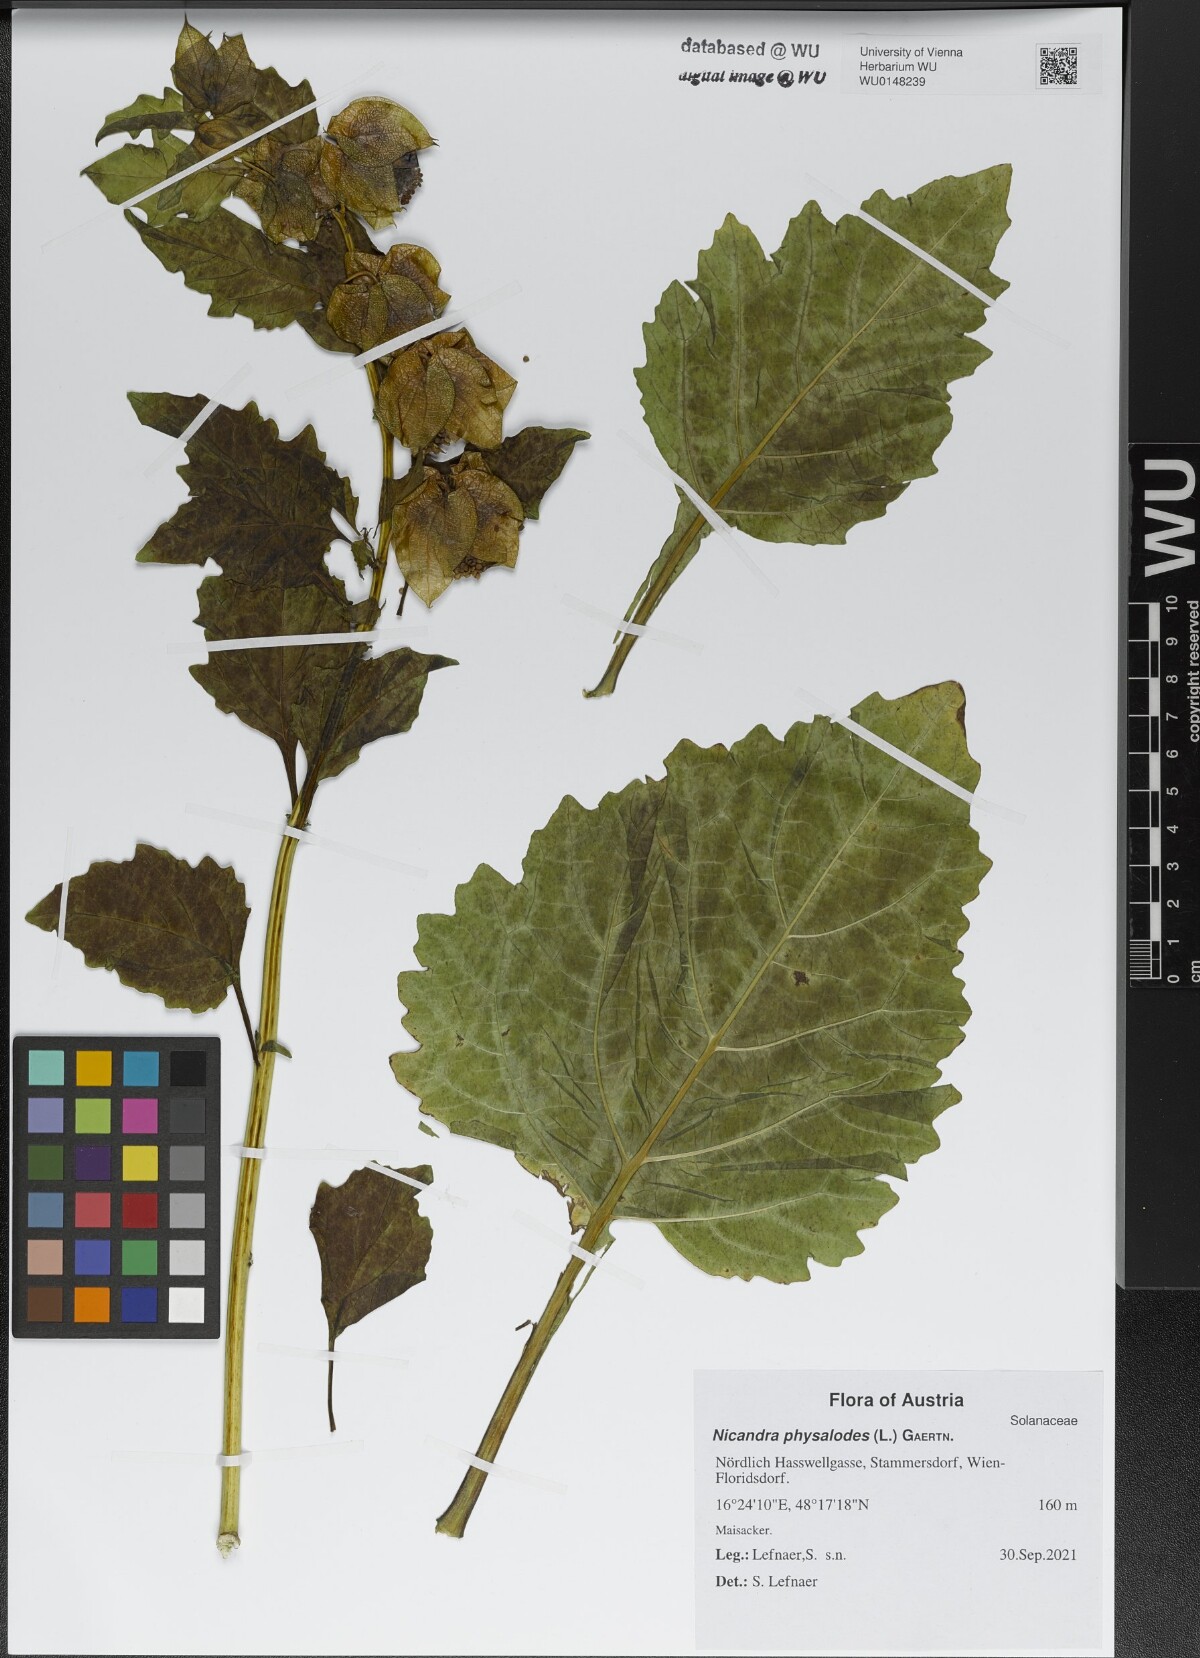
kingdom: Plantae
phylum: Tracheophyta
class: Magnoliopsida
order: Solanales
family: Solanaceae
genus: Nicandra
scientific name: Nicandra physalodes
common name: Apple-of-peru
